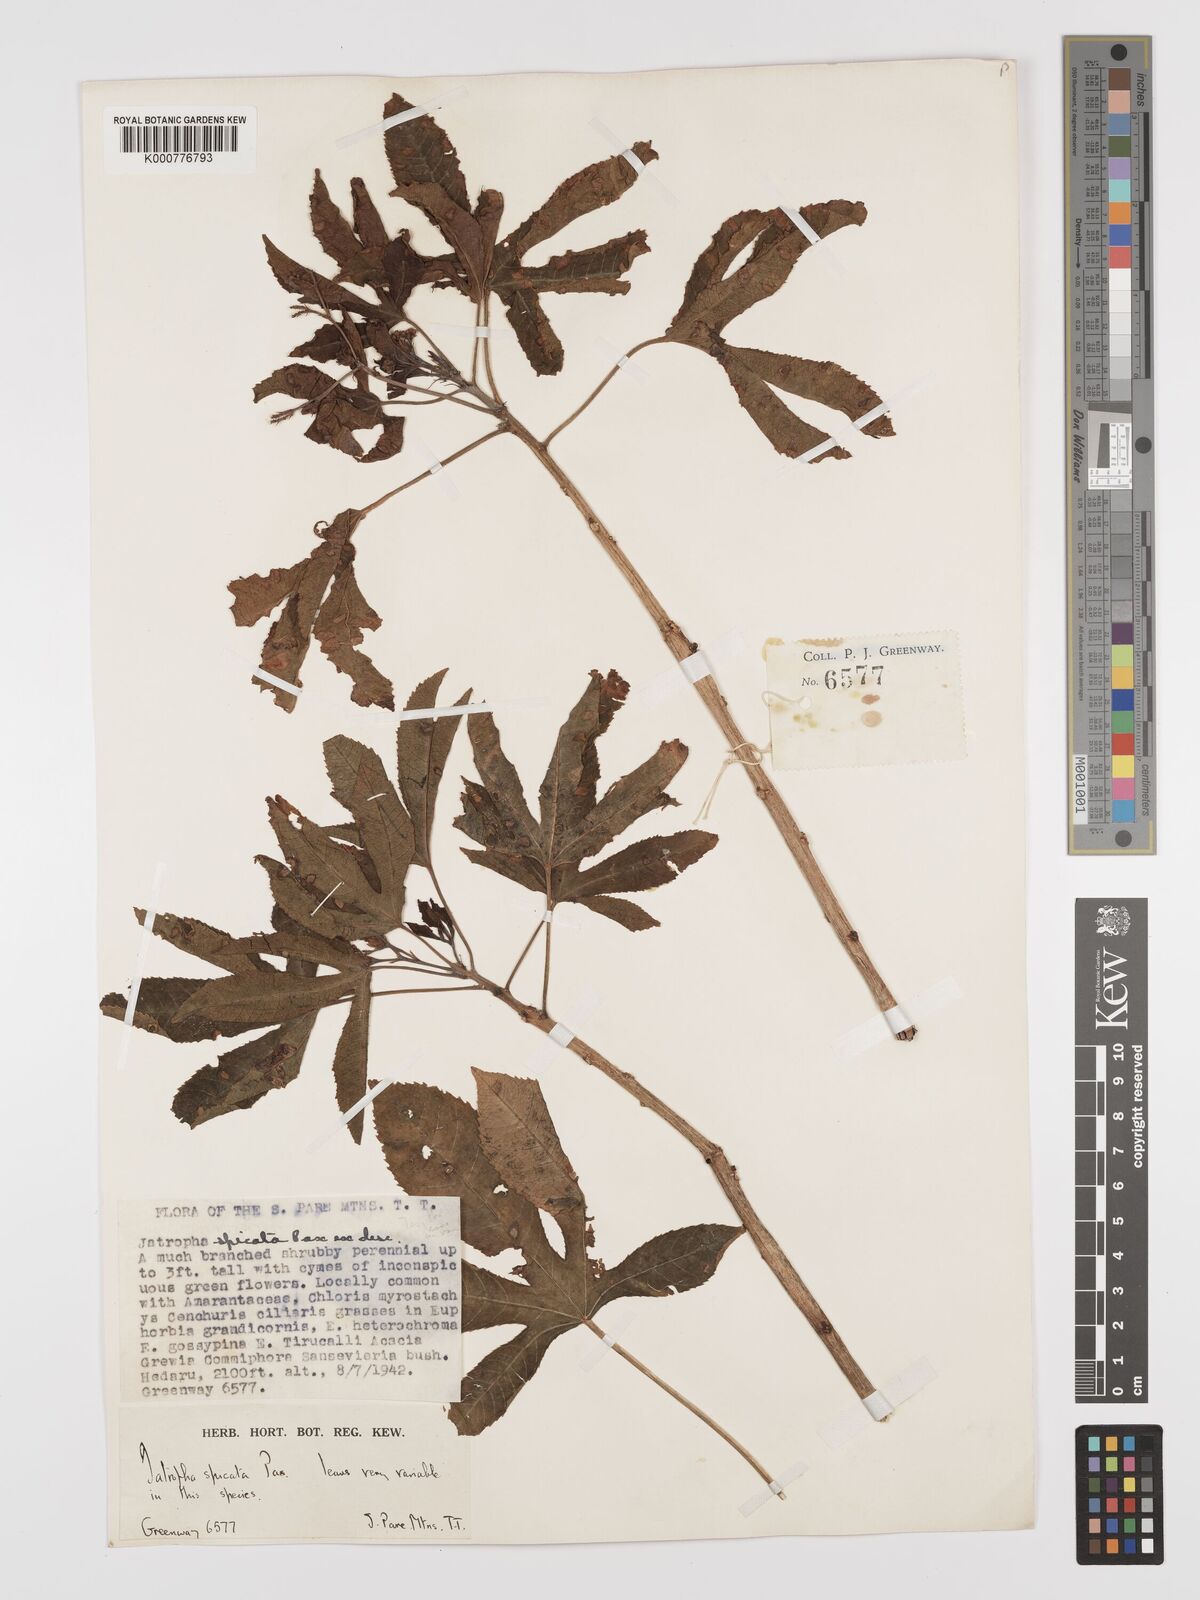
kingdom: Plantae
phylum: Tracheophyta
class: Magnoliopsida
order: Malpighiales
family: Euphorbiaceae
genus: Jatropha
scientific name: Jatropha spicata
